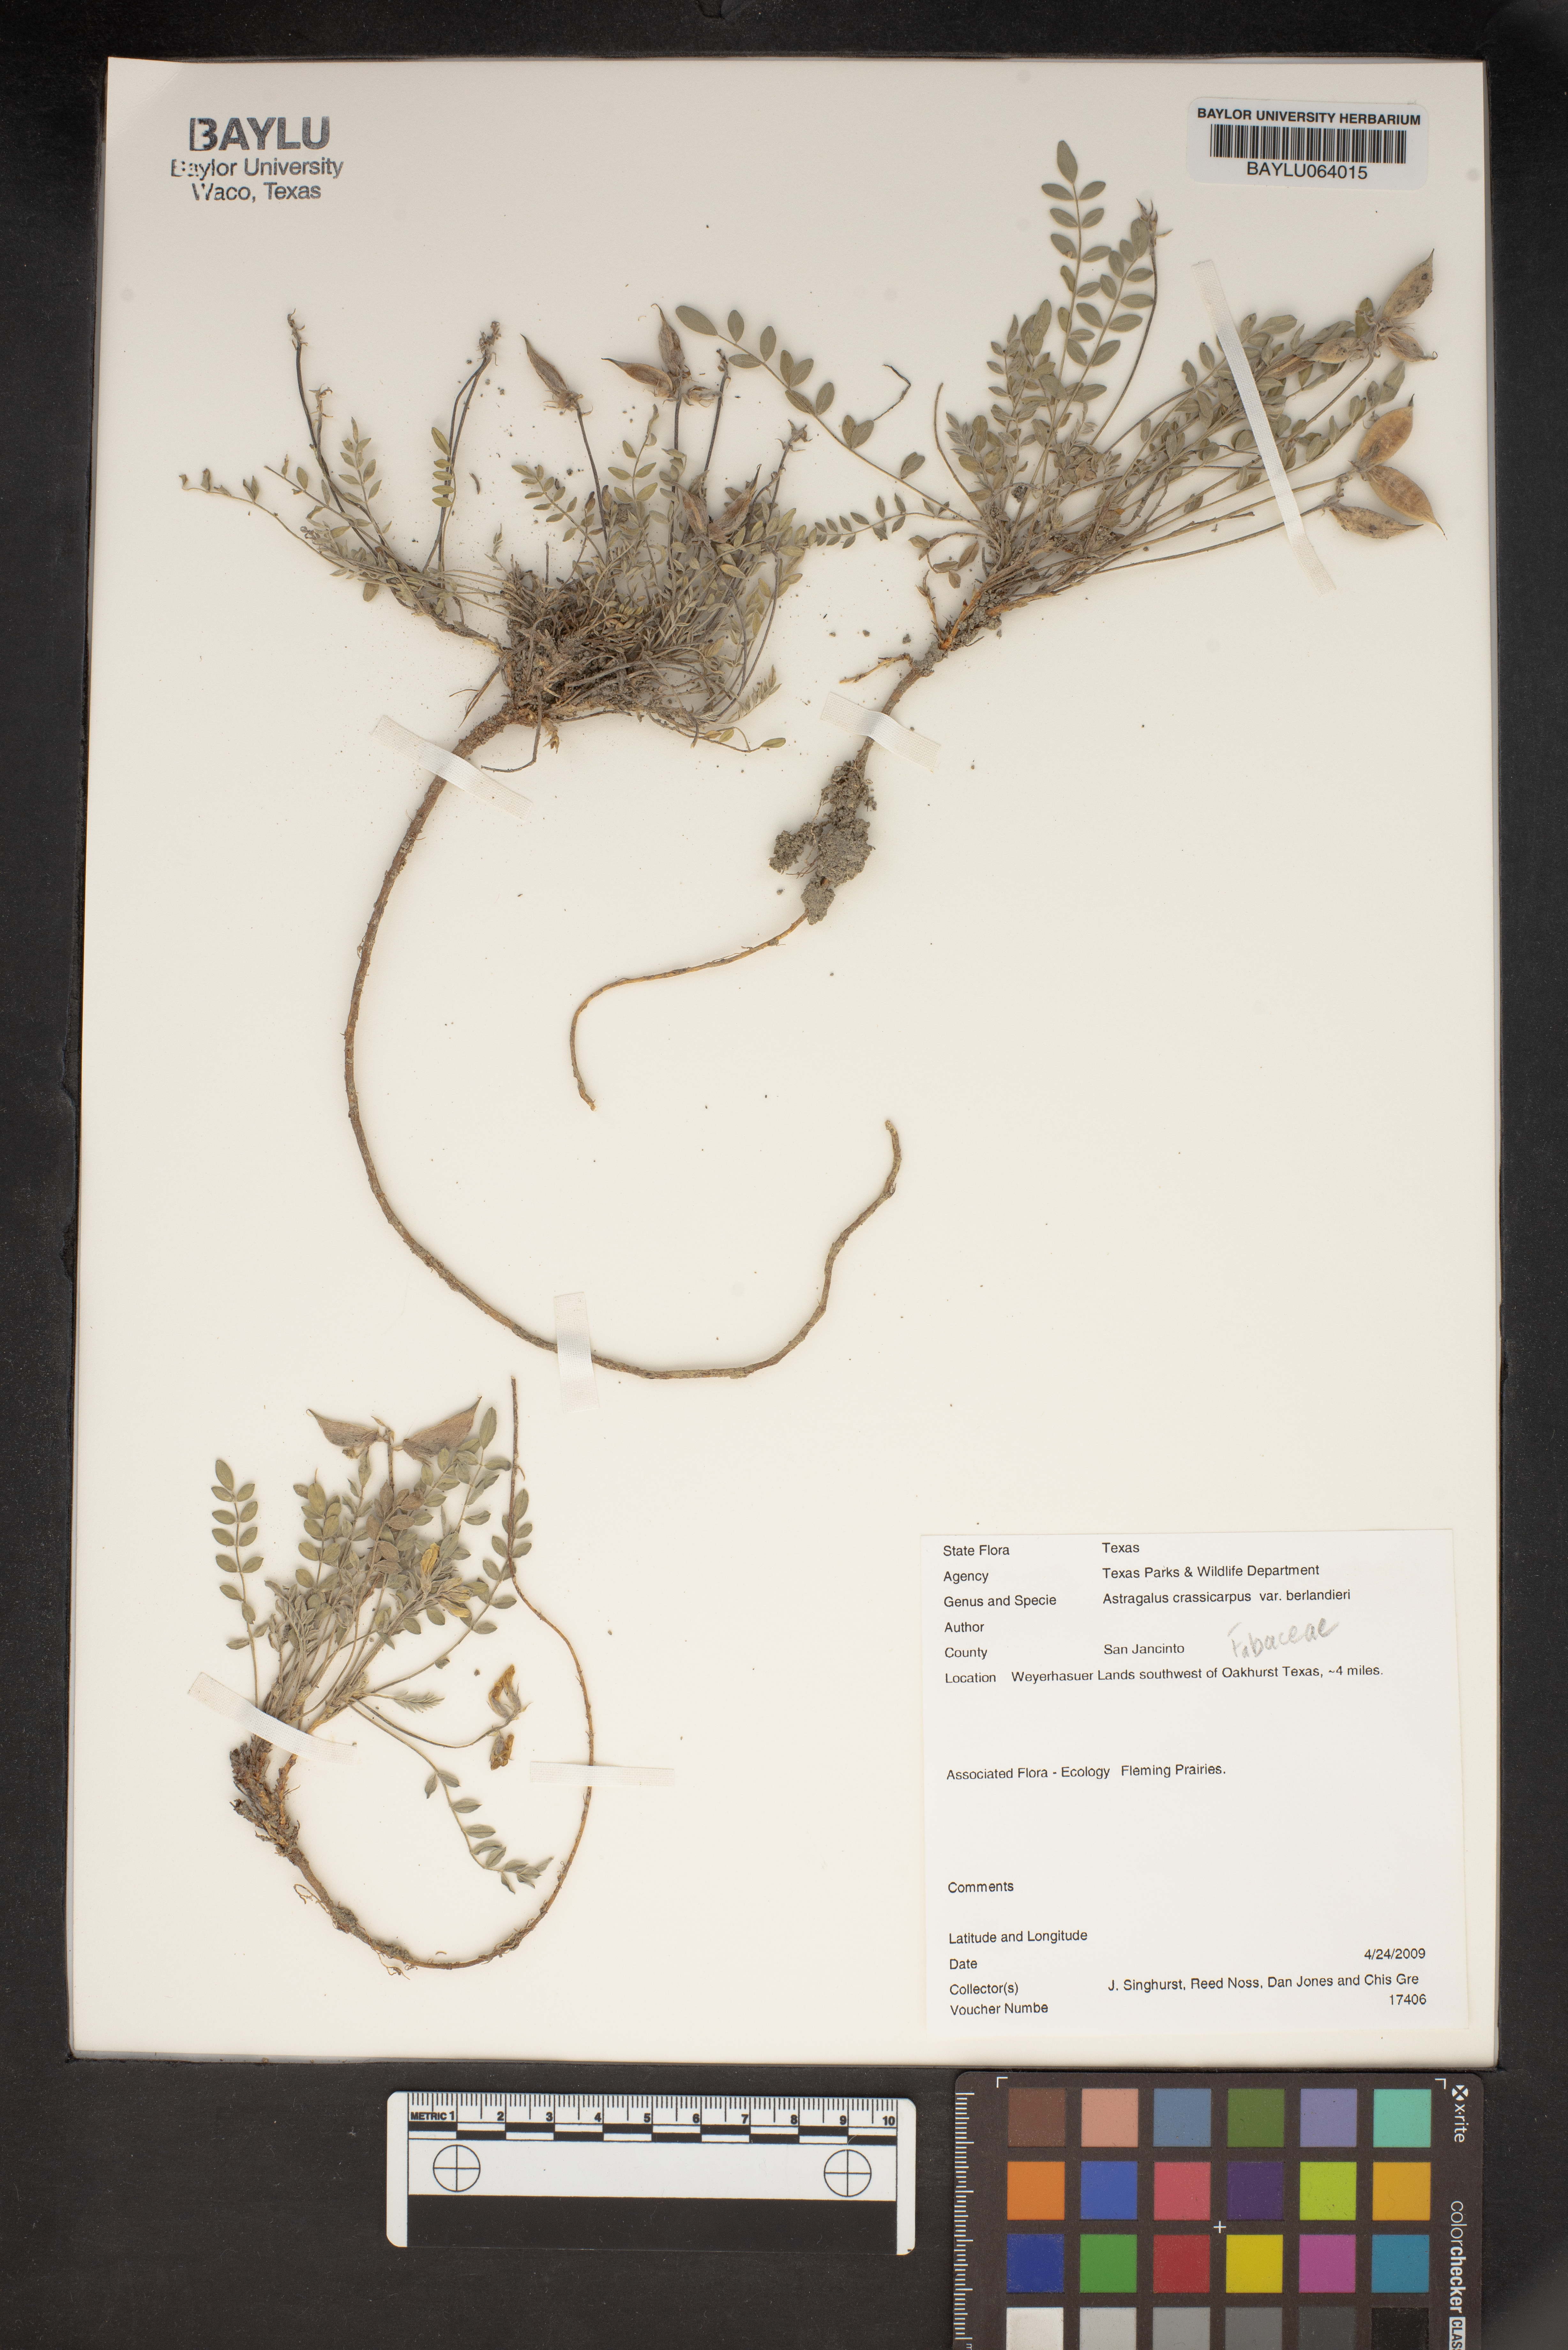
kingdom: Plantae
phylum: Tracheophyta
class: Magnoliopsida
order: Fabales
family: Fabaceae
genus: Astragalus
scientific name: Astragalus crassicarpus
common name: Ground-plum milk-vetch
